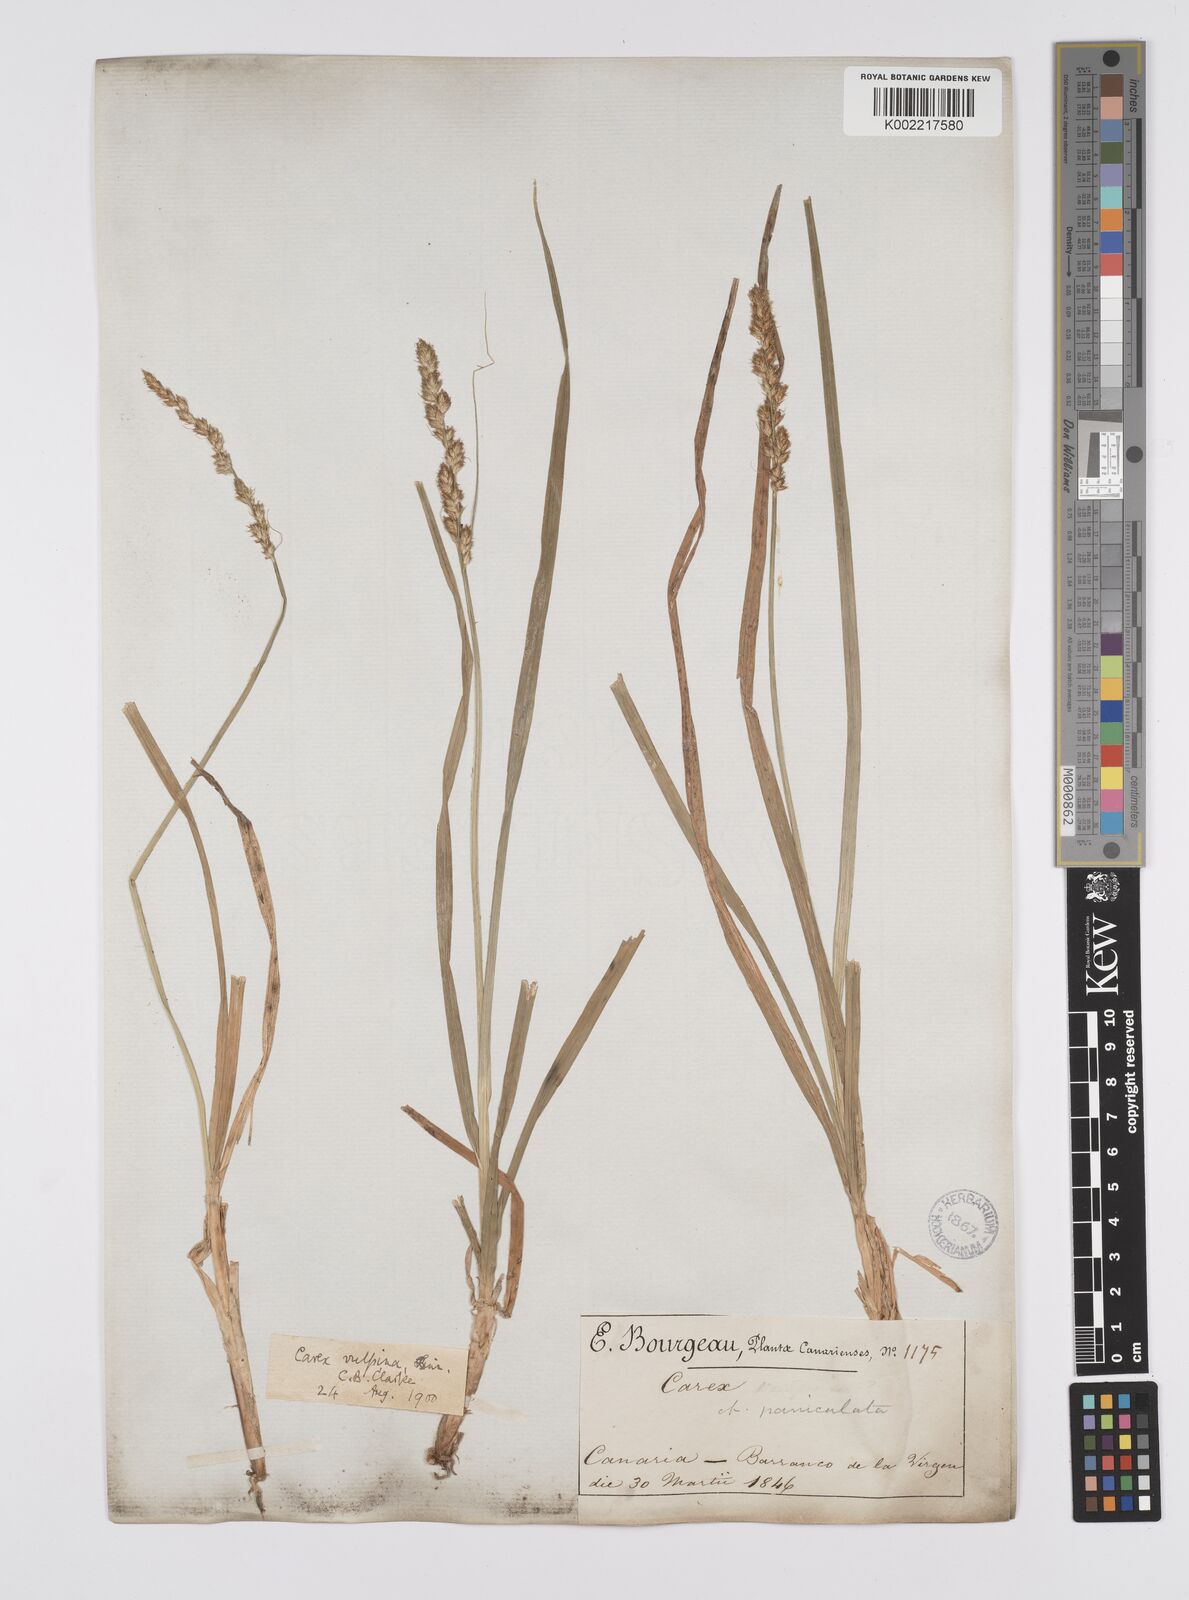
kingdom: Plantae
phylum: Tracheophyta
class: Liliopsida
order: Poales
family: Cyperaceae
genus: Carex
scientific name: Carex vulpina
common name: True fox-sedge
